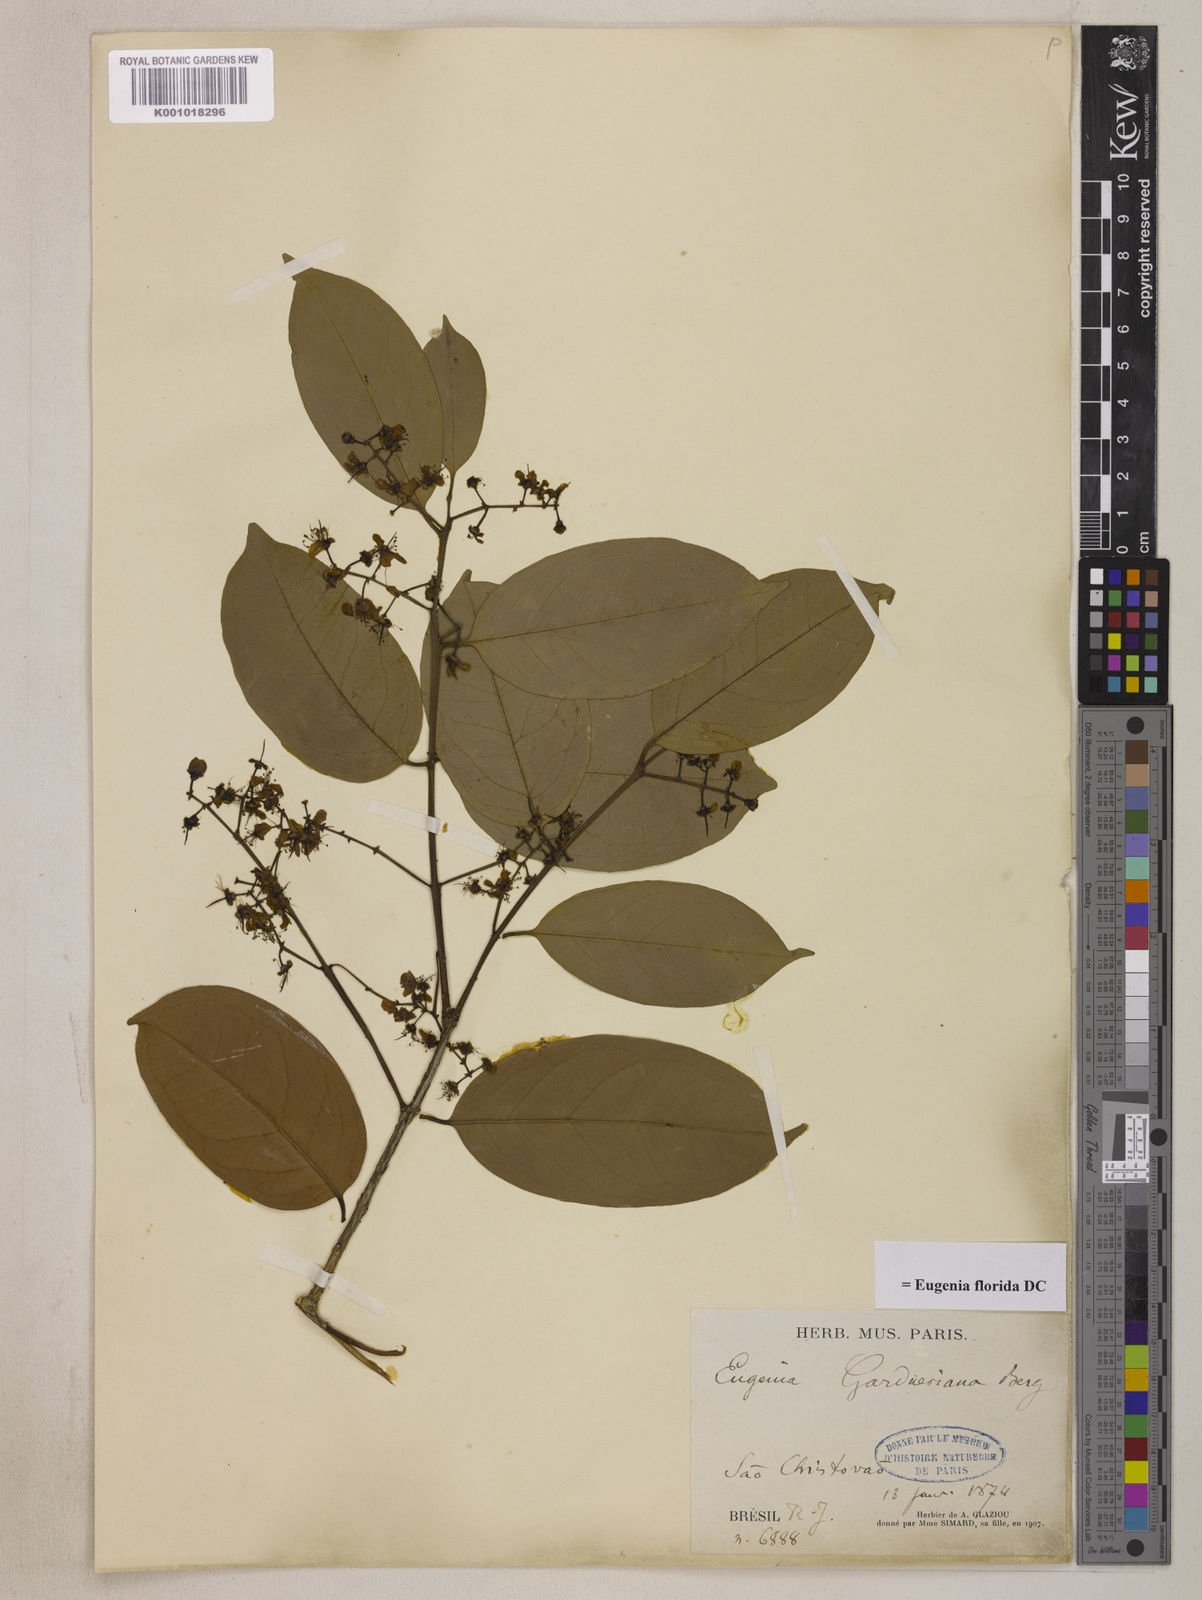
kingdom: Plantae
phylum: Tracheophyta
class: Magnoliopsida
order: Myrtales
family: Myrtaceae
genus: Eugenia
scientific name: Eugenia florida
